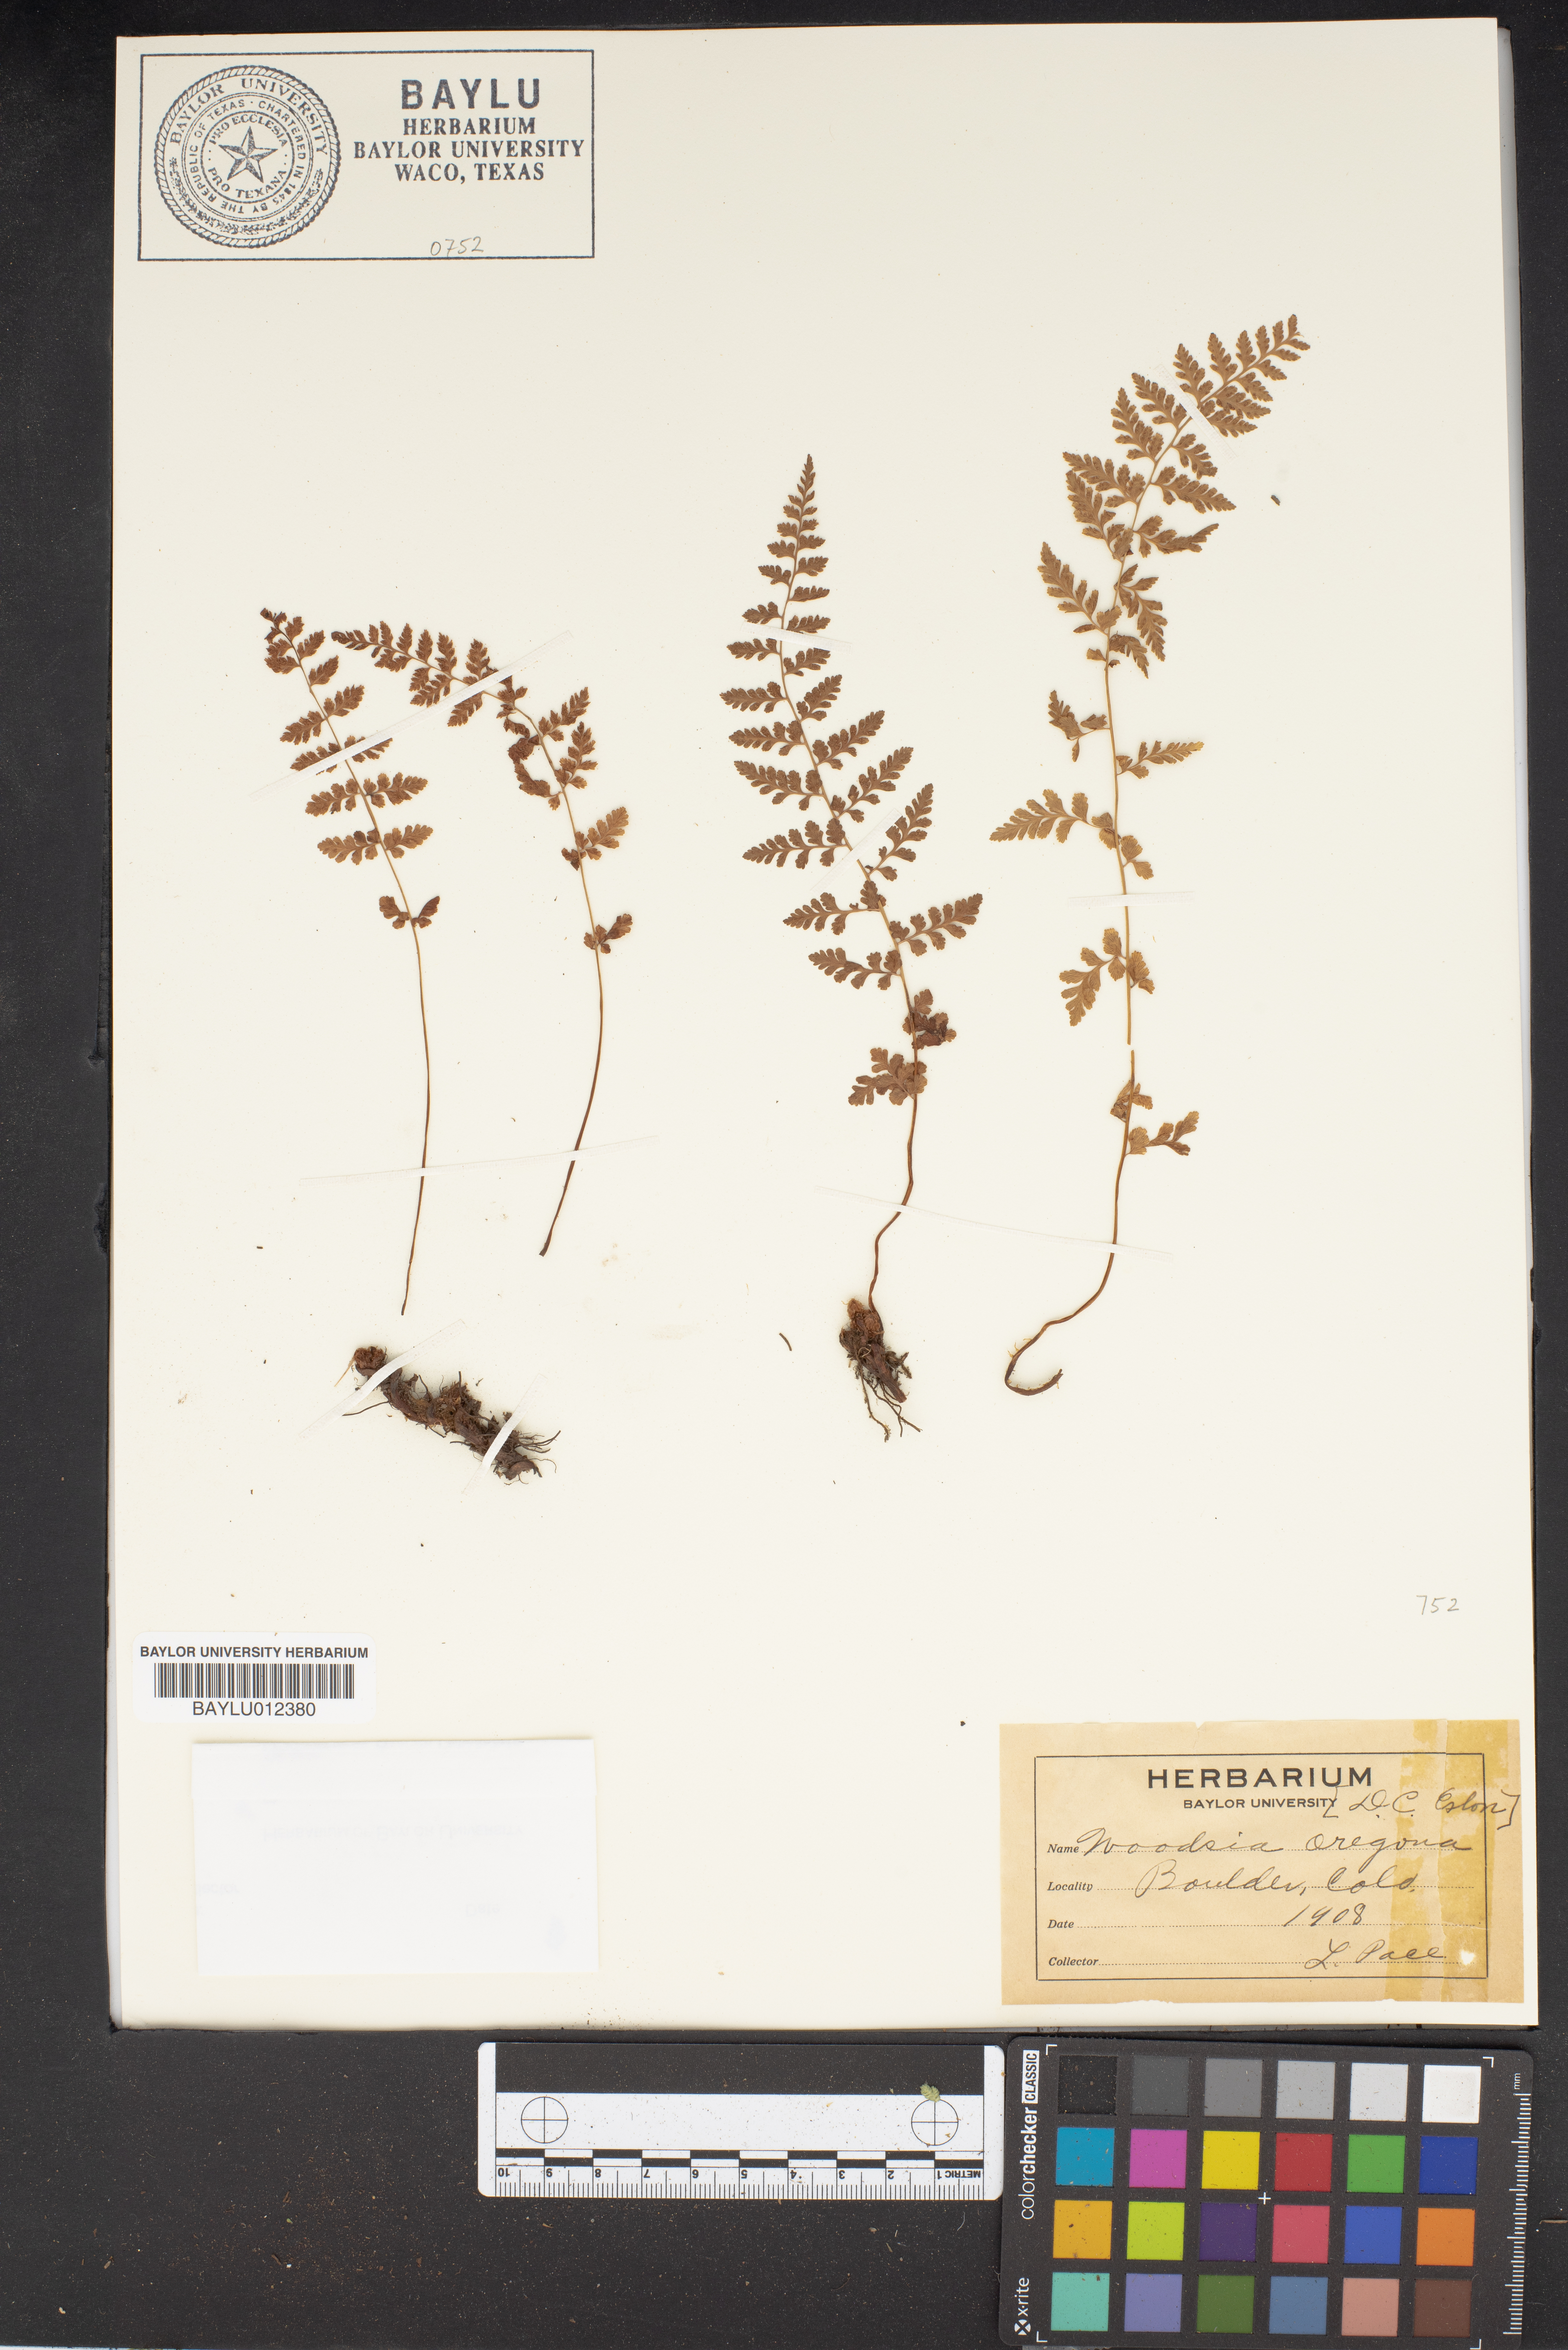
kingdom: Plantae
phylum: Tracheophyta
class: Polypodiopsida
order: Polypodiales
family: Woodsiaceae
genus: Physematium
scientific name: Physematium oreganum
